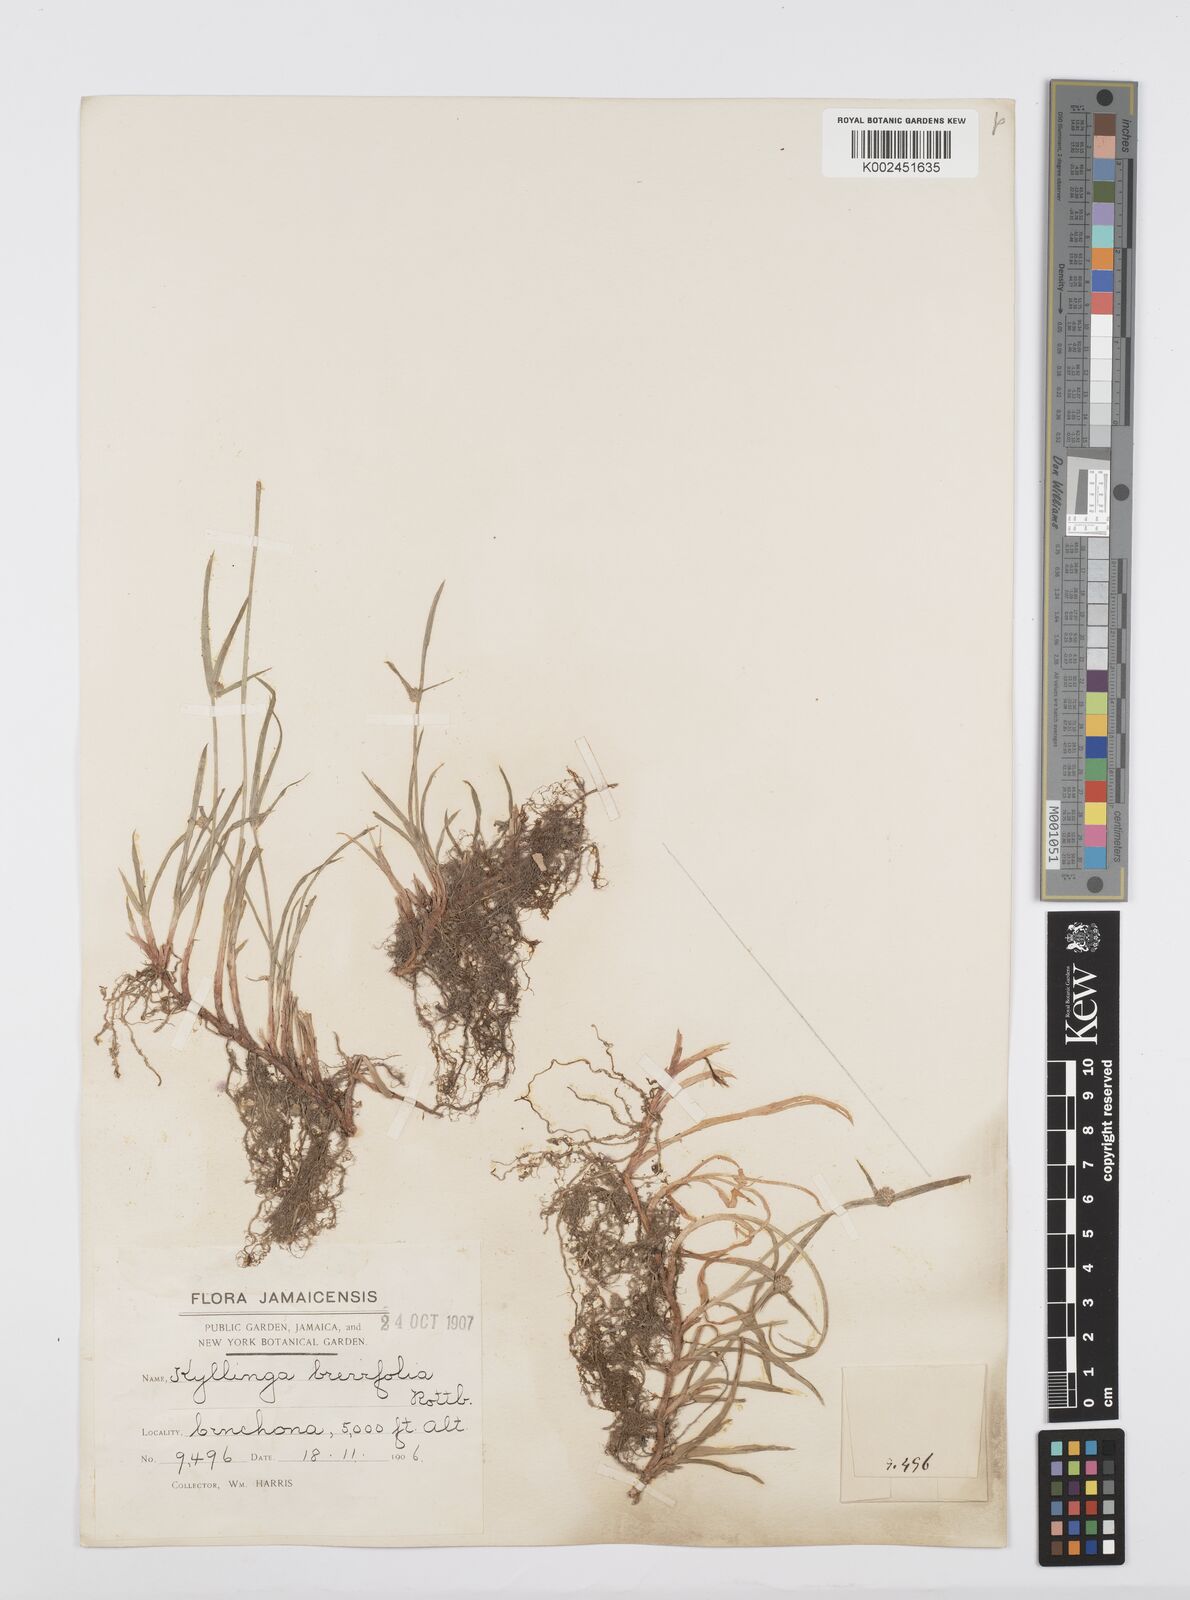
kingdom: Plantae
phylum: Tracheophyta
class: Liliopsida
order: Poales
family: Cyperaceae
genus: Cyperus
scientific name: Cyperus brevifolius
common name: Globe kyllinga
